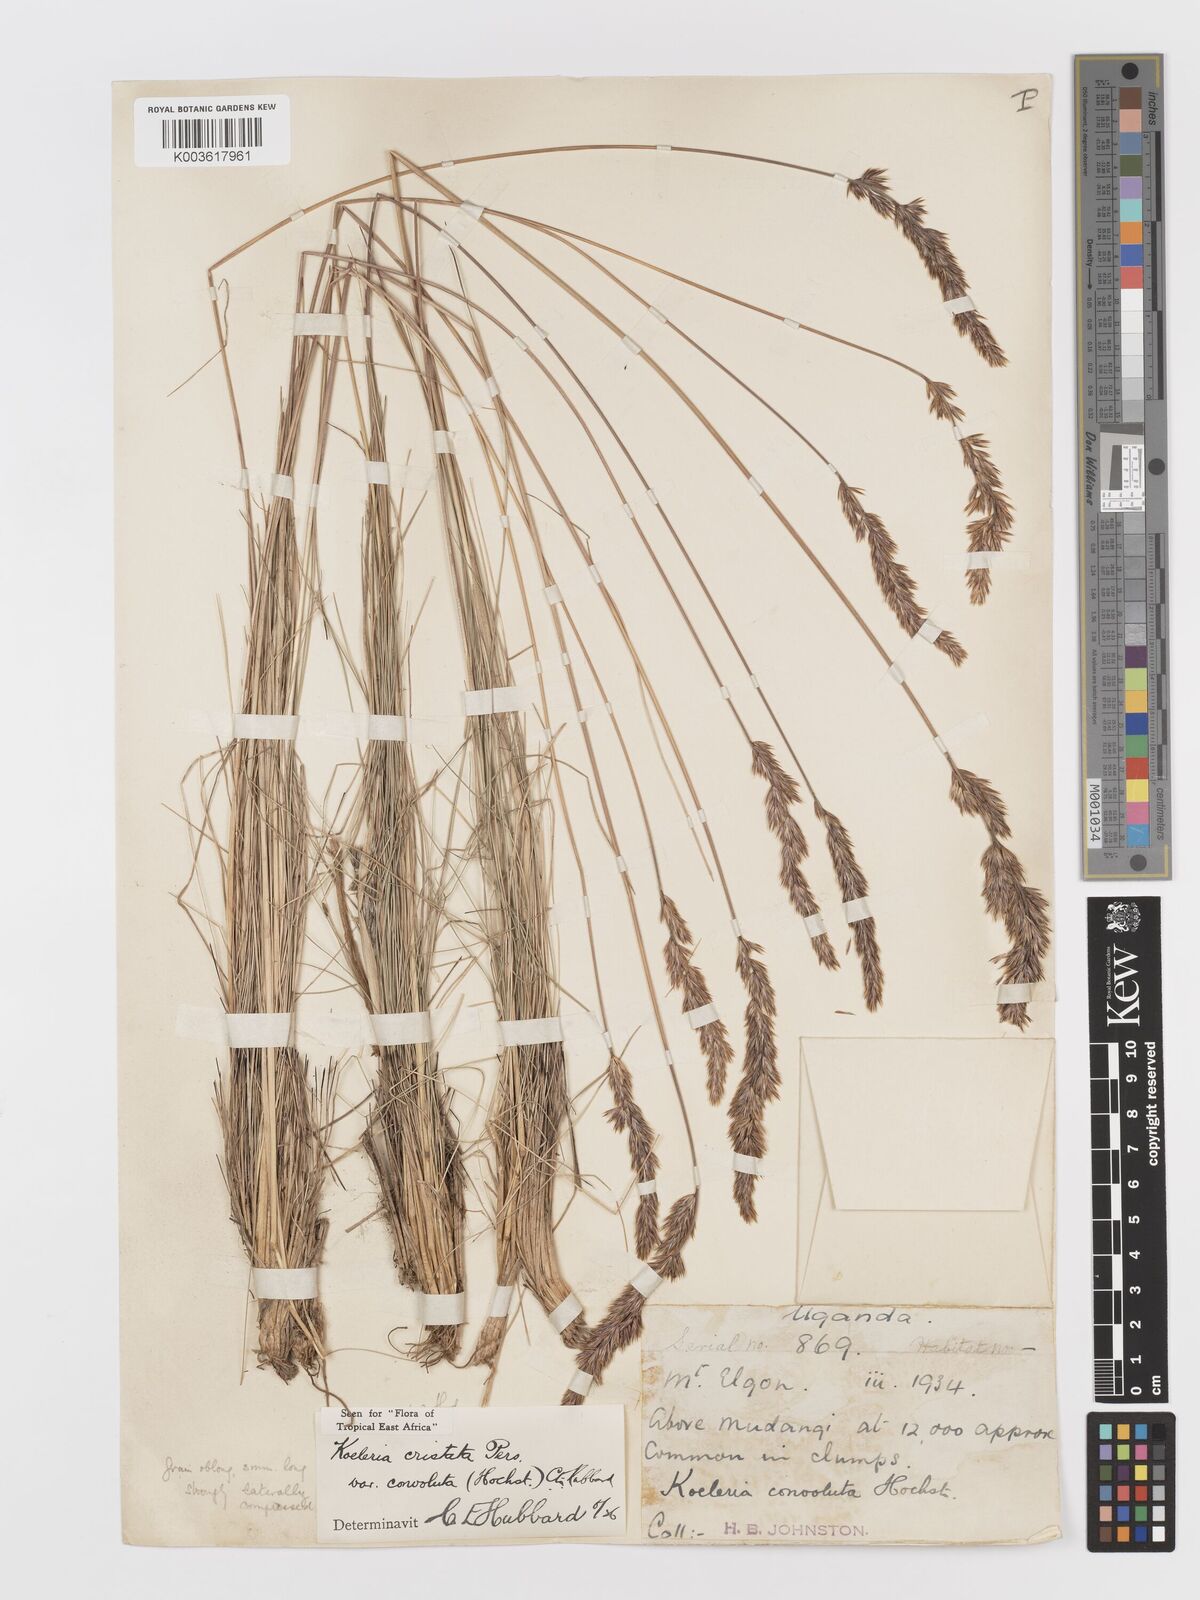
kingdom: Plantae
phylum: Tracheophyta
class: Liliopsida
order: Poales
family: Poaceae
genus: Koeleria
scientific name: Koeleria capensis
